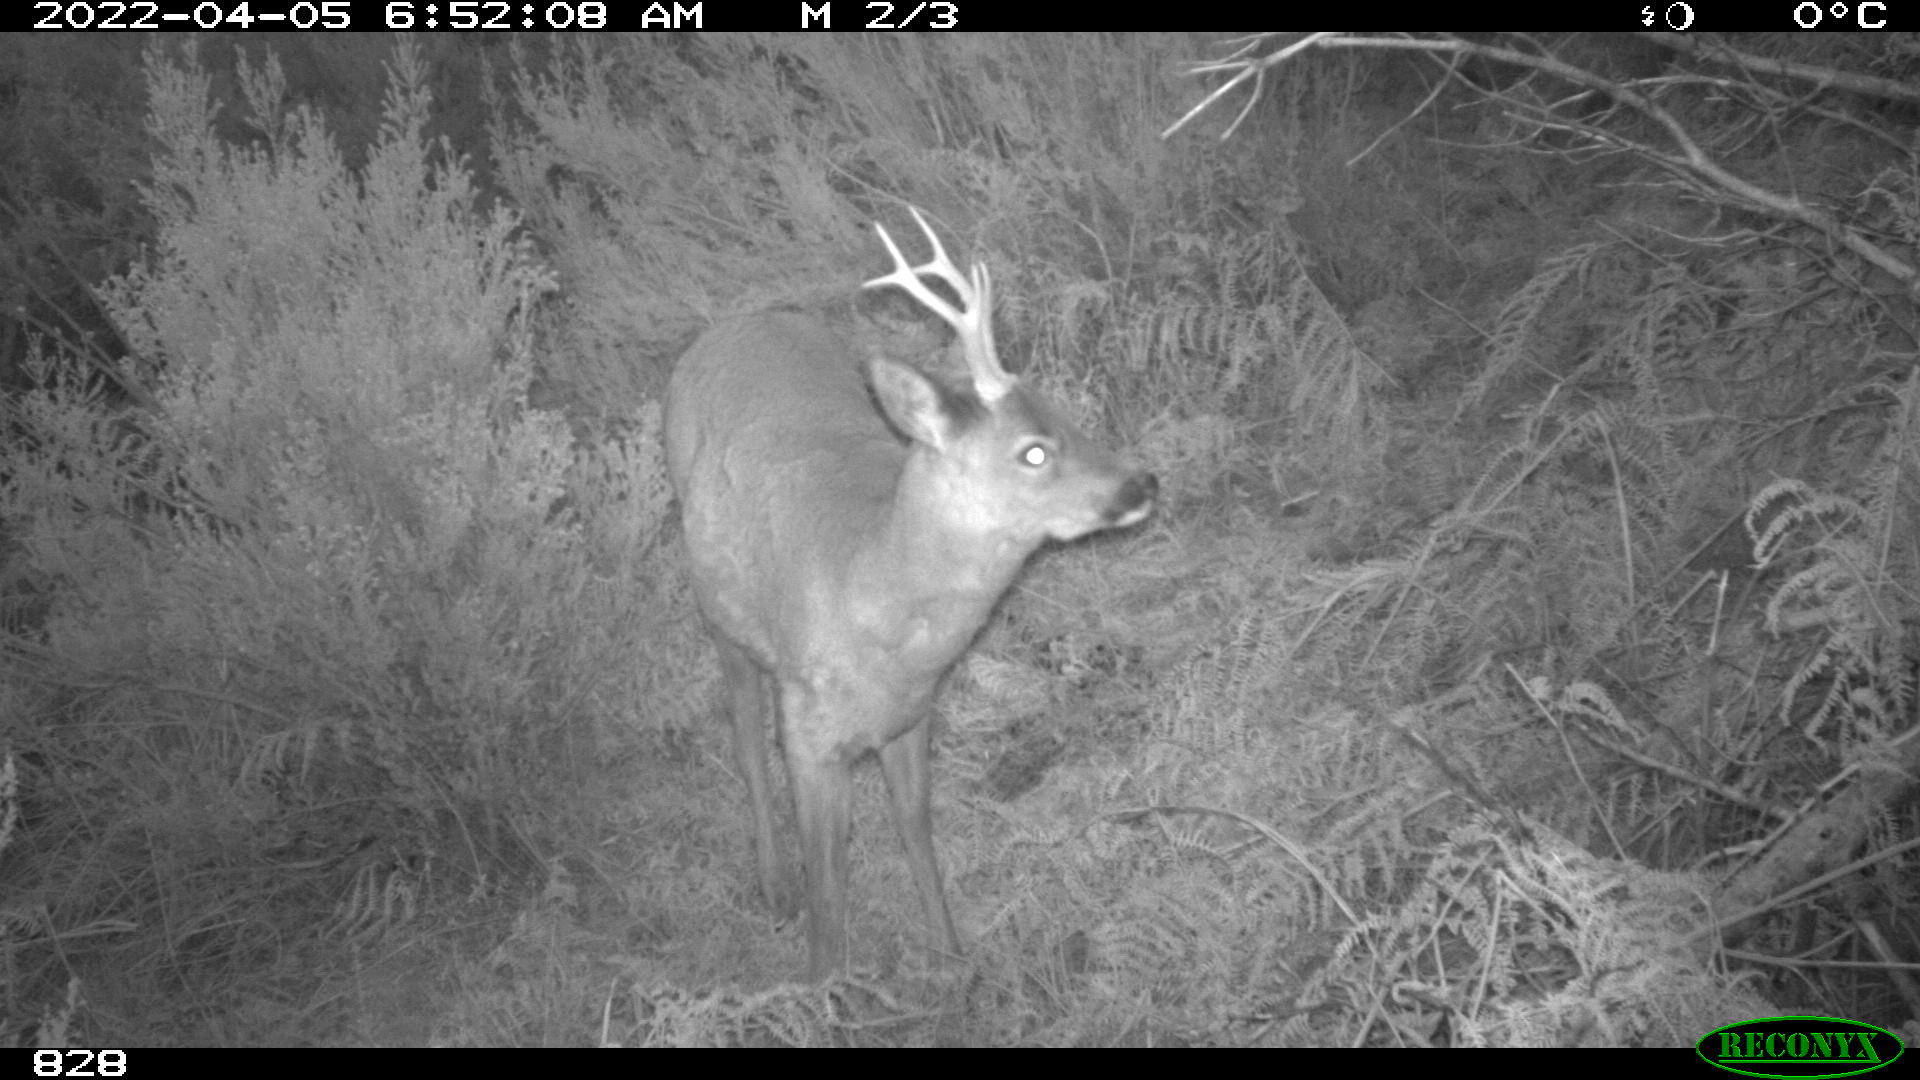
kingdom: Animalia
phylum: Chordata
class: Mammalia
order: Artiodactyla
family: Cervidae
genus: Capreolus
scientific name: Capreolus capreolus
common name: Western roe deer
